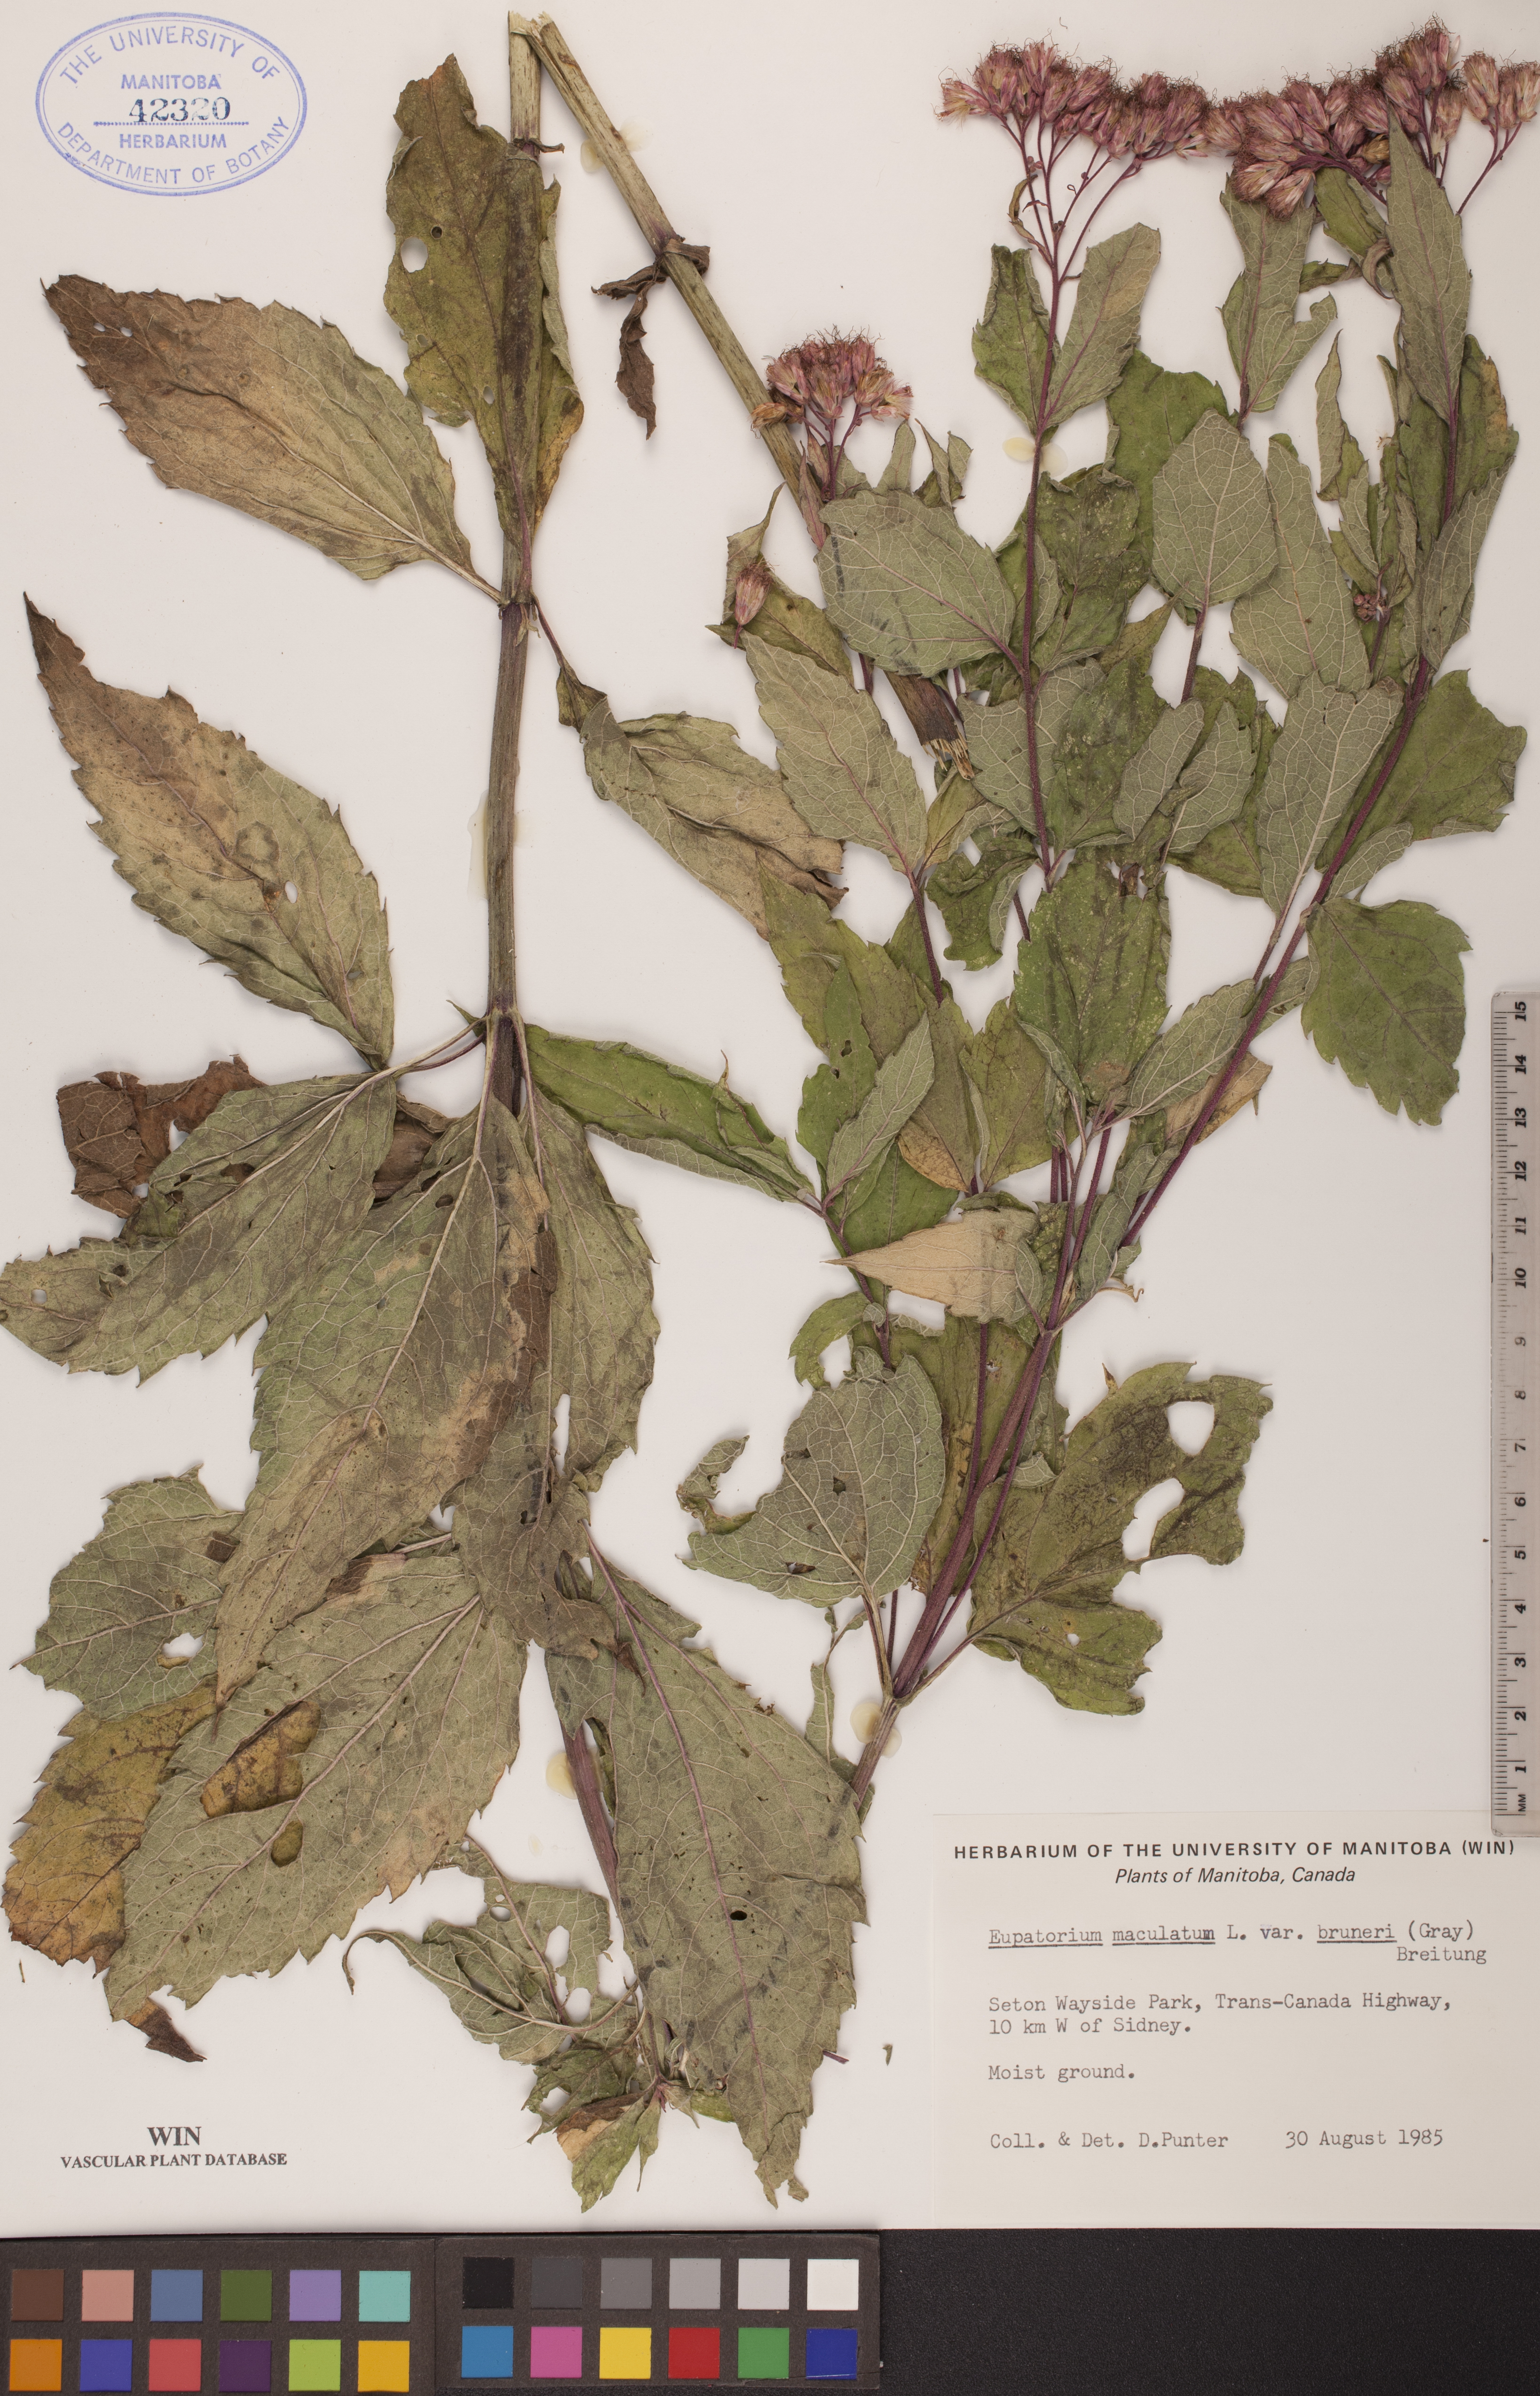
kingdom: Plantae
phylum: Tracheophyta
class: Magnoliopsida
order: Asterales
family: Asteraceae
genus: Eutrochium
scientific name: Eutrochium maculatum
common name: Spotted joe pye weed
